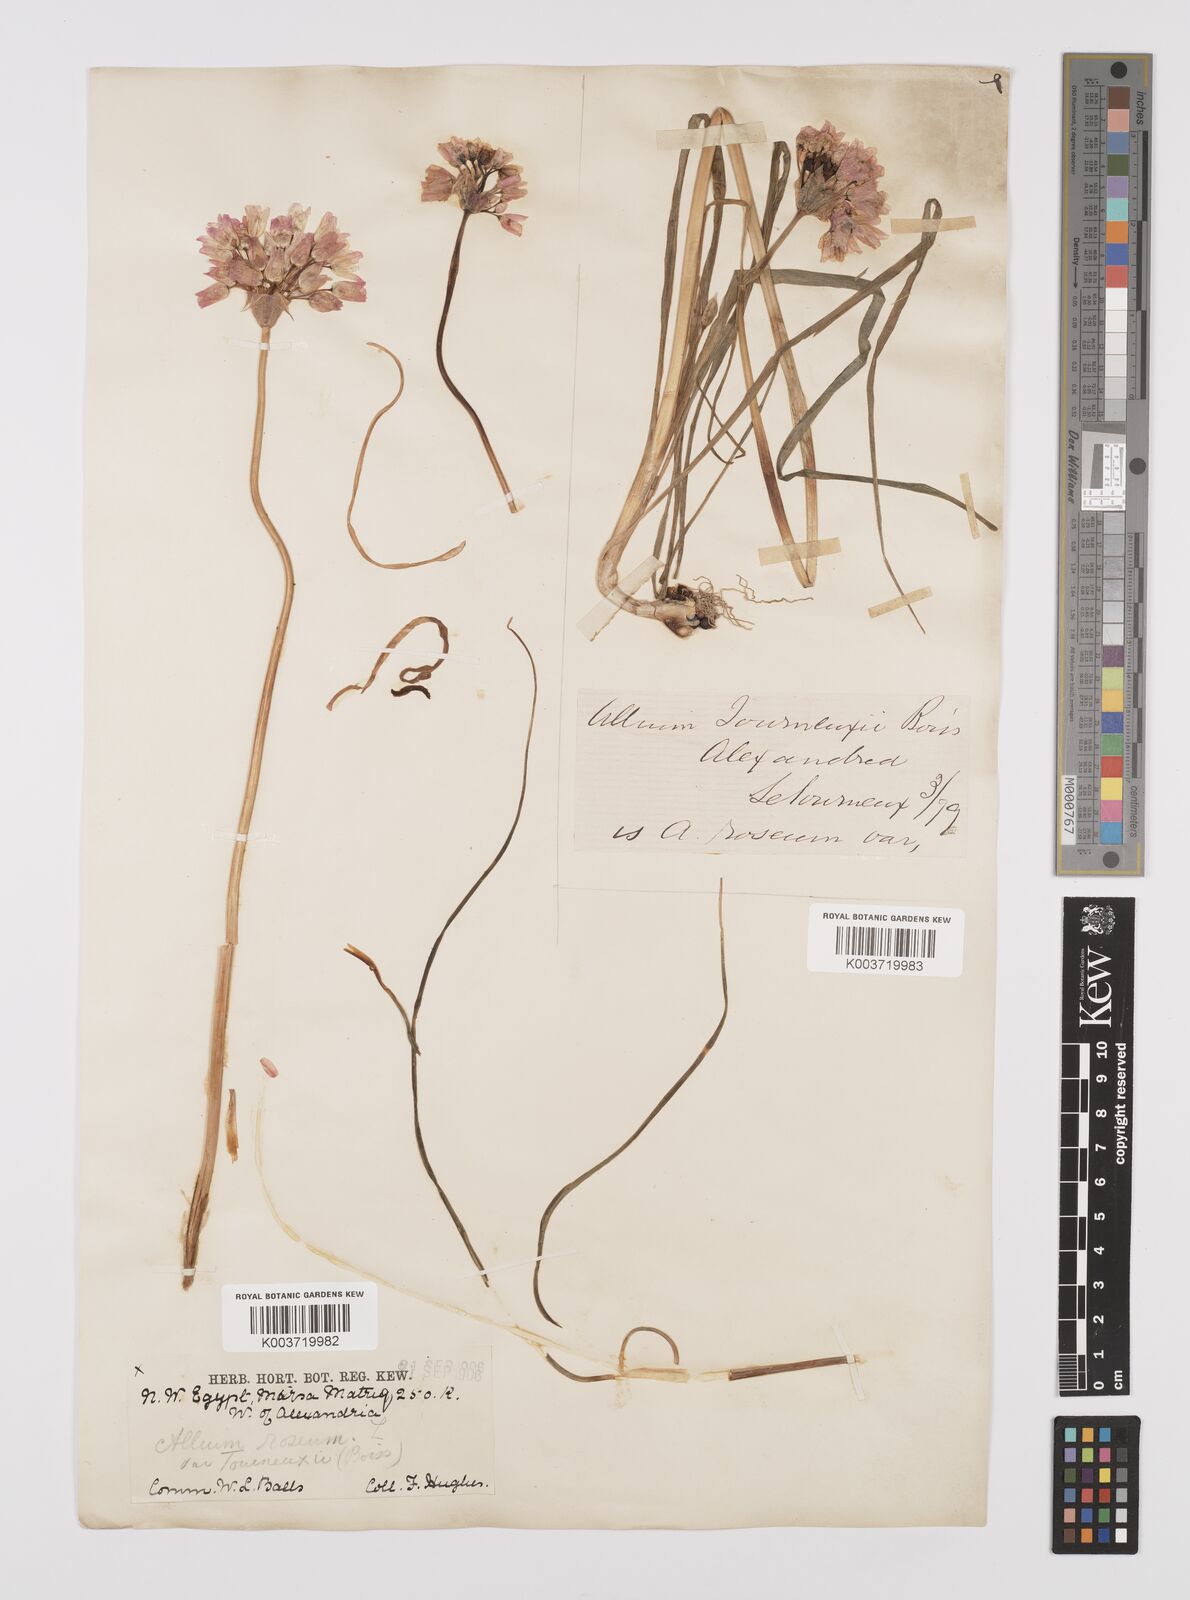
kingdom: Plantae
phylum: Tracheophyta
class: Liliopsida
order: Asparagales
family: Amaryllidaceae
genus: Allium
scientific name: Allium roseum
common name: Rosy garlic
